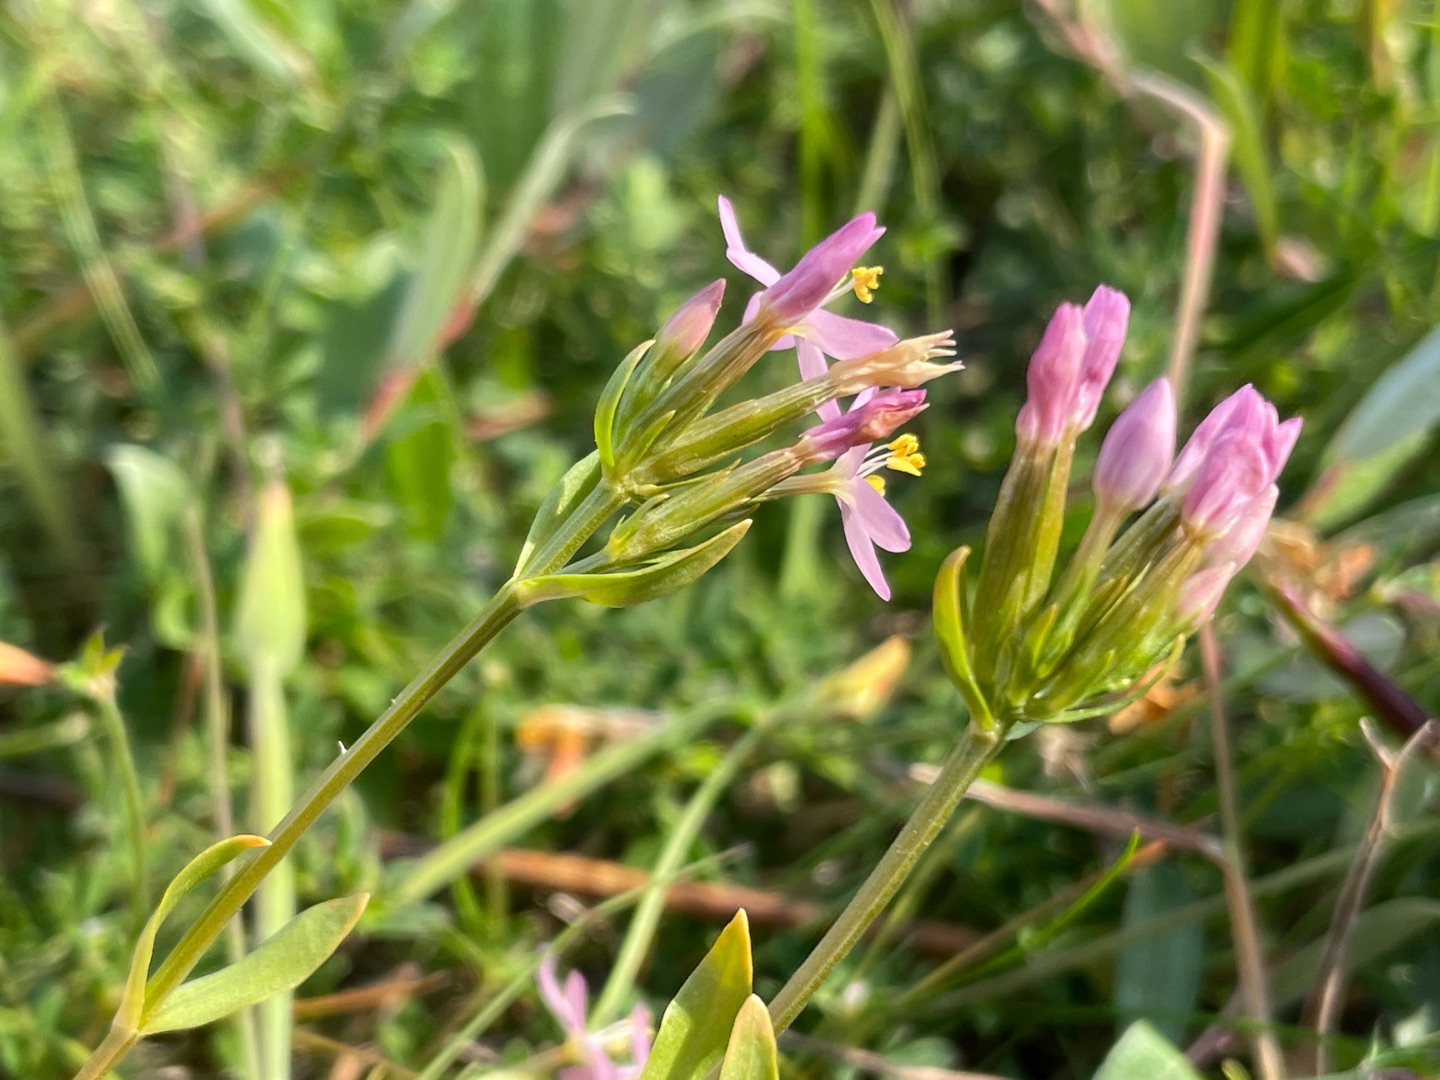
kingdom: Plantae
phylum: Tracheophyta
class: Magnoliopsida
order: Gentianales
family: Gentianaceae
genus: Centaurium
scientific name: Centaurium erythraea
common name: Mark-tusindgylden
